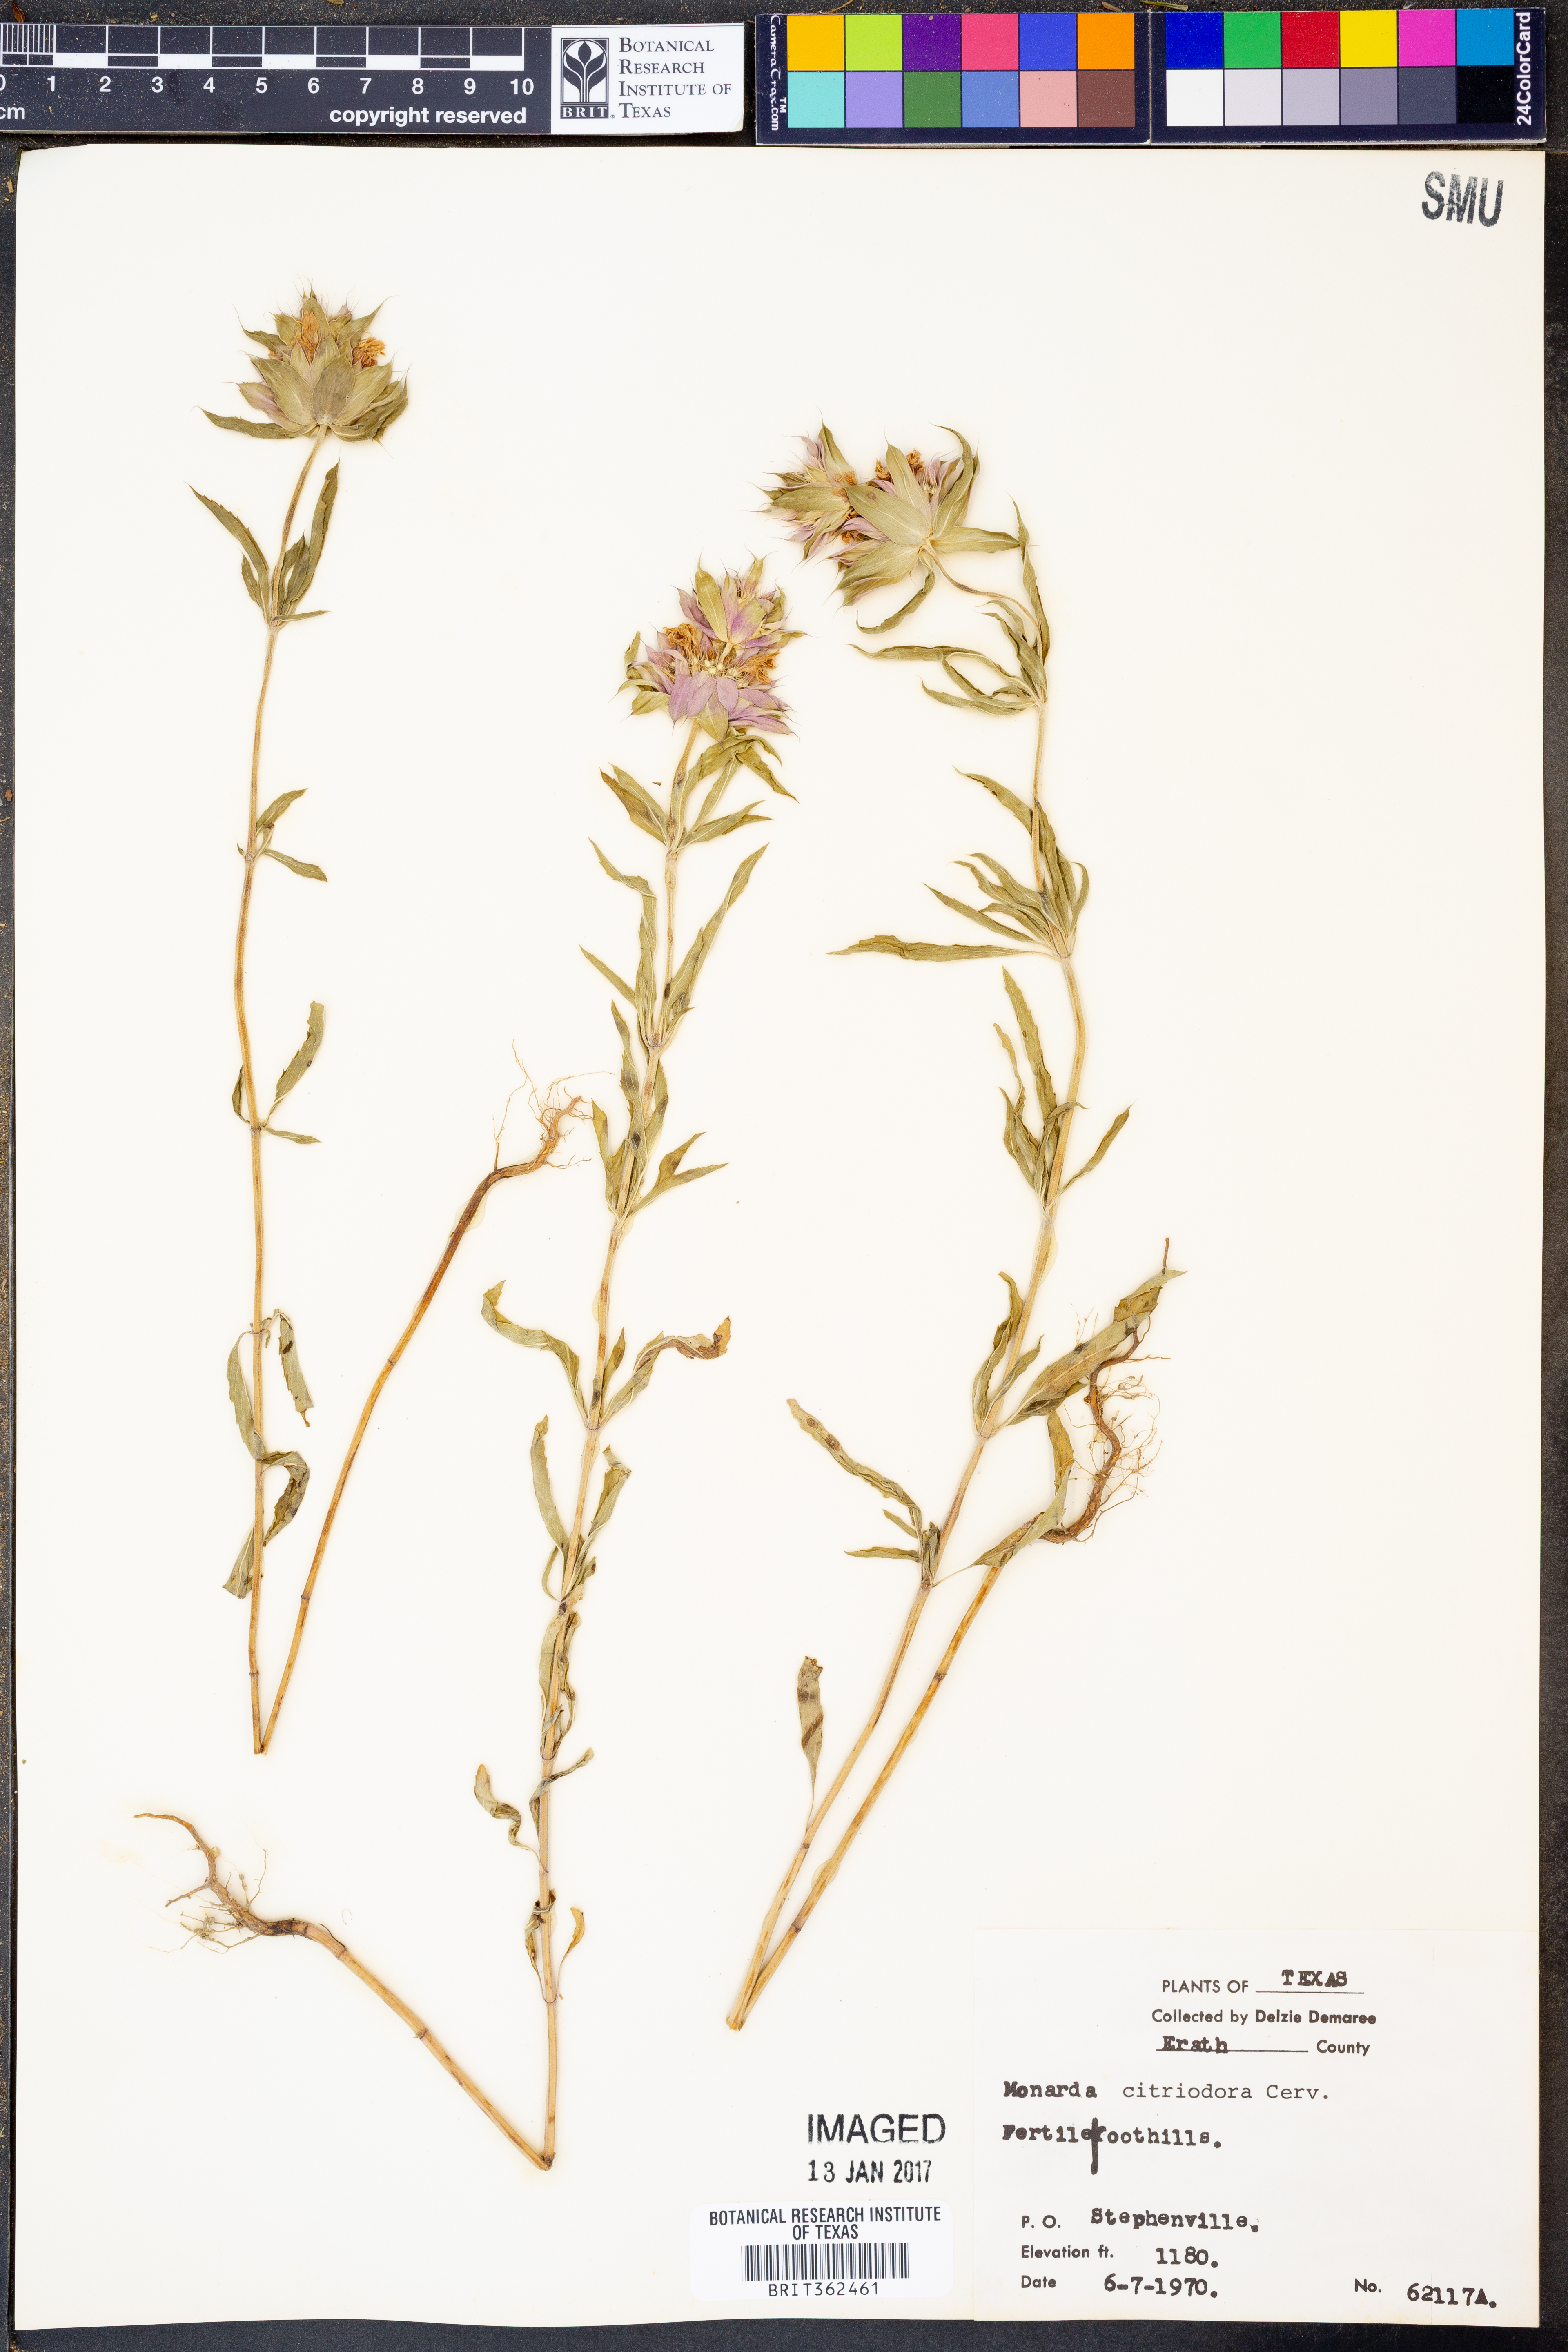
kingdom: Plantae
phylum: Tracheophyta
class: Magnoliopsida
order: Lamiales
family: Lamiaceae
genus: Monarda
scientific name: Monarda citriodora
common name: Lemon beebalm
